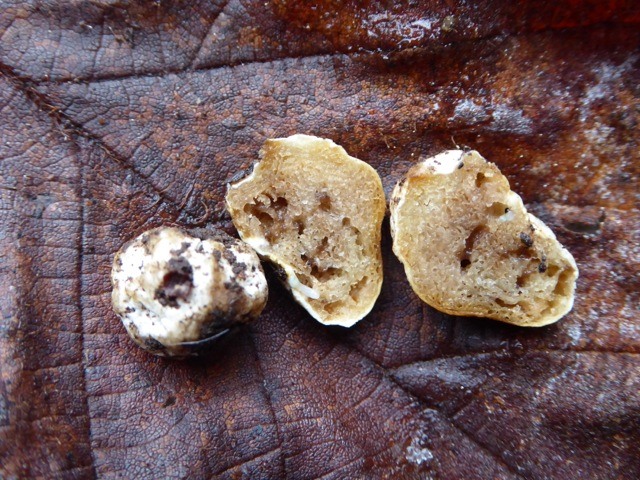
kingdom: Fungi
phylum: Basidiomycota
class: Agaricomycetes
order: Agaricales
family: Cortinariaceae
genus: Protoglossum
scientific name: Protoglossum niveum
